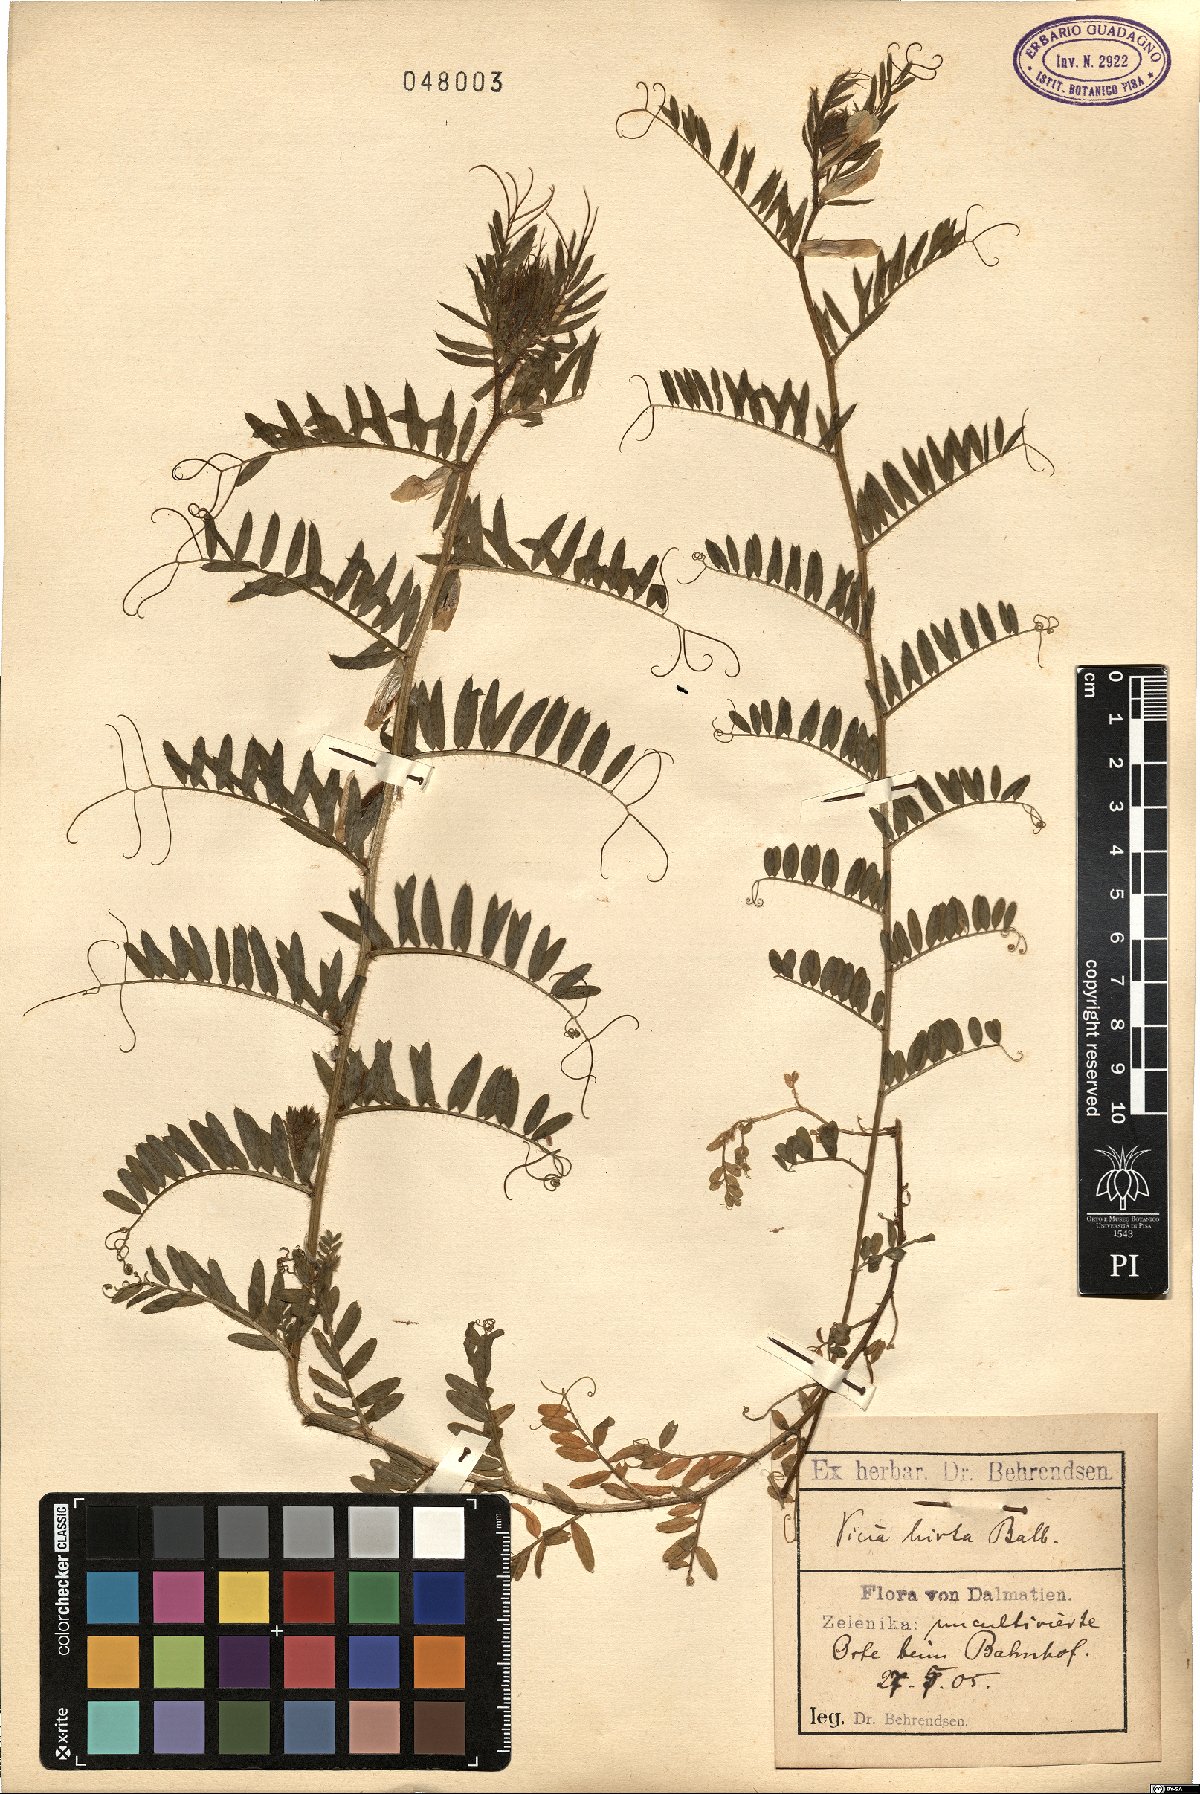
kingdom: Plantae
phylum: Tracheophyta
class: Magnoliopsida
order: Fabales
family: Fabaceae
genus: Vicia
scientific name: Vicia lutea
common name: Smooth yellow vetch
